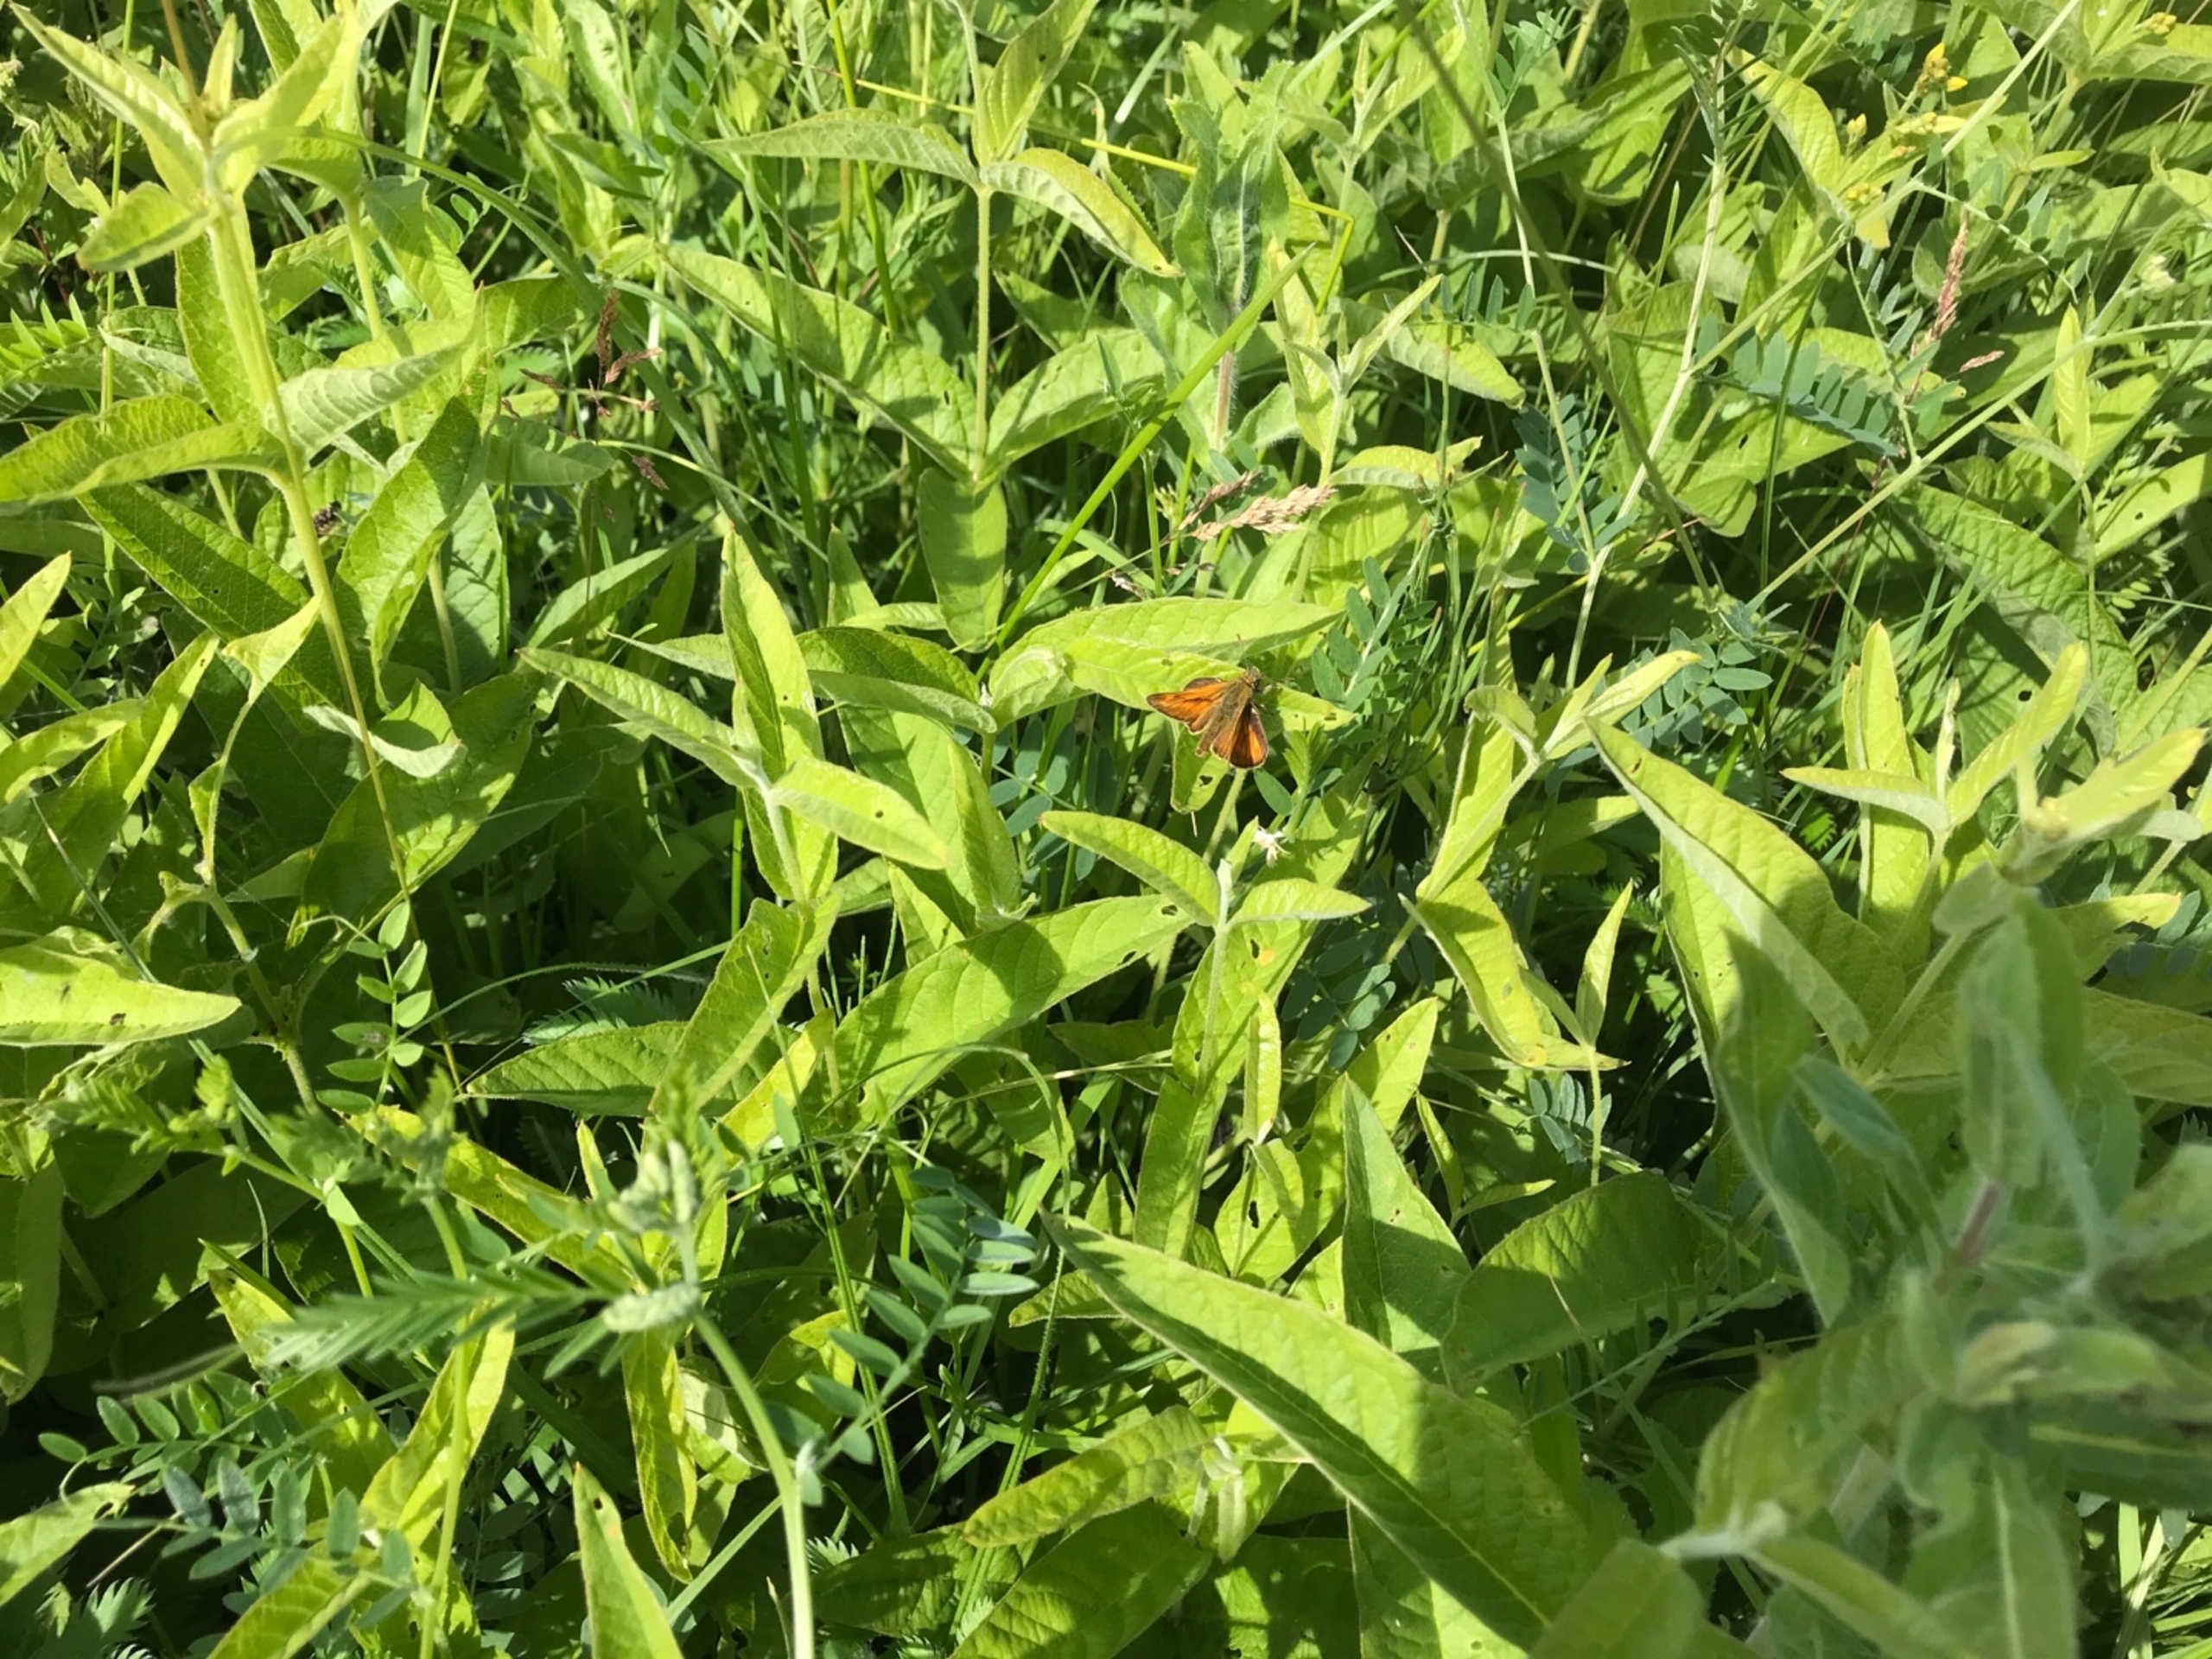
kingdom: Animalia
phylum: Arthropoda
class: Insecta
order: Lepidoptera
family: Hesperiidae
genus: Ochlodes
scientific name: Ochlodes venata
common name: Stor bredpande
